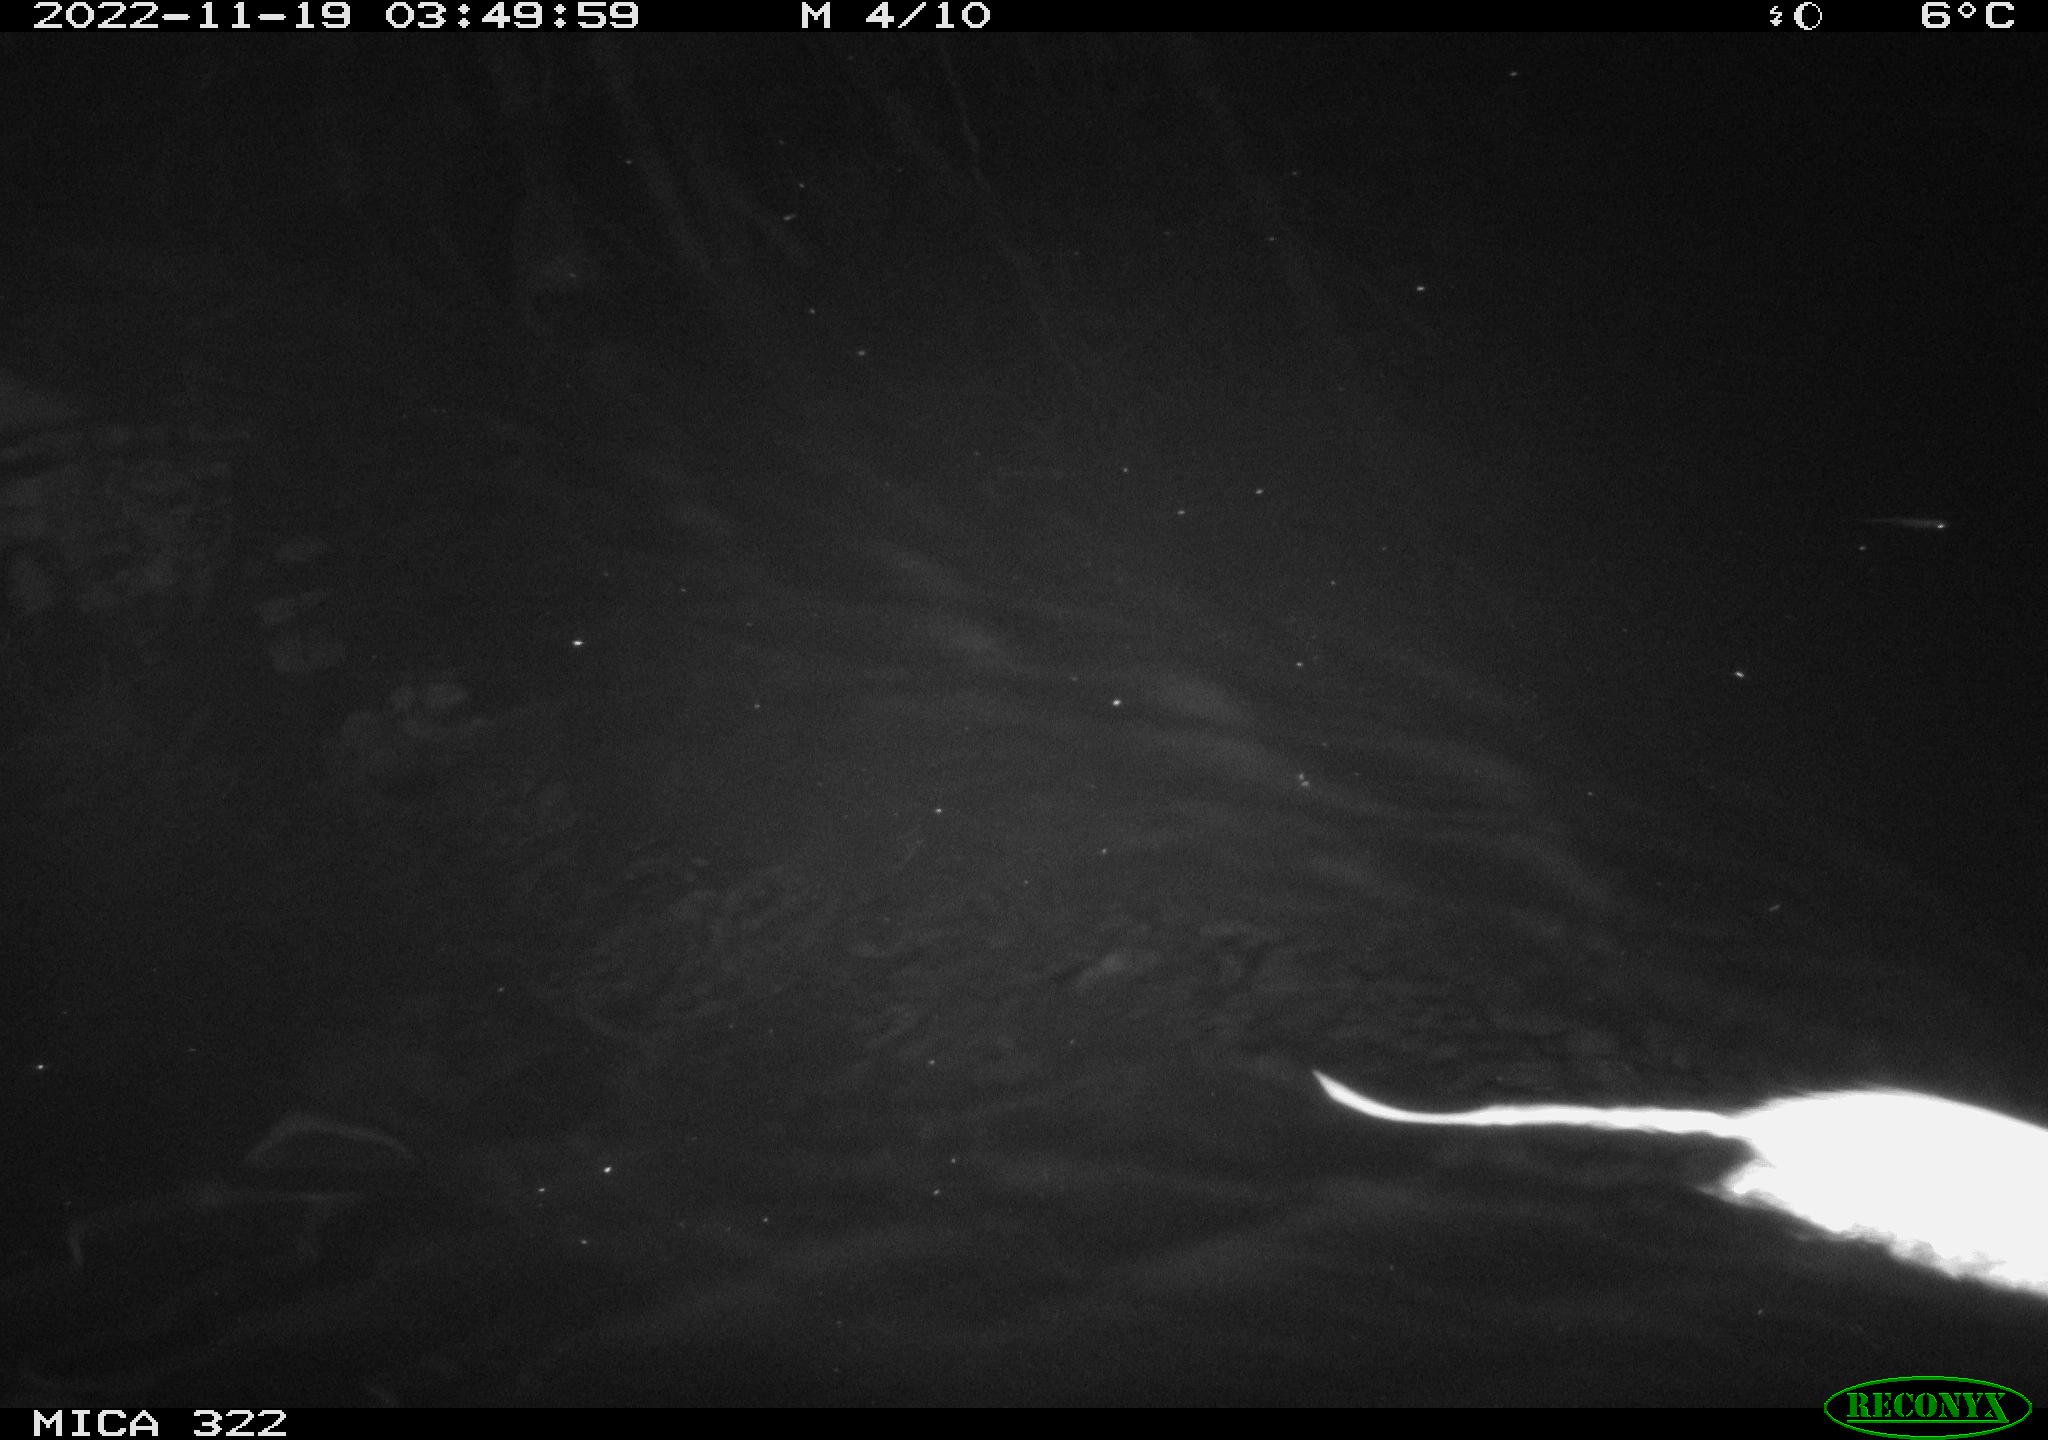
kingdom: Animalia
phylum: Chordata
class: Mammalia
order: Rodentia
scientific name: Rodentia
